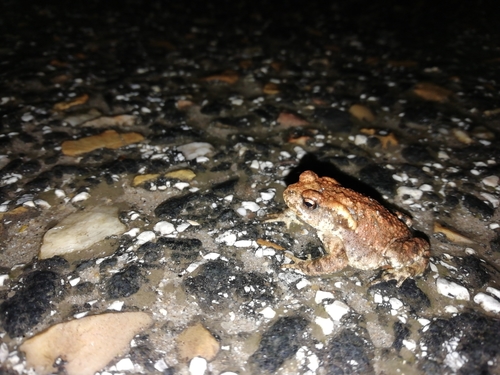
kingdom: Animalia
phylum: Chordata
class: Amphibia
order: Anura
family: Bufonidae
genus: Bufo
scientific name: Bufo spinosus
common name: Western common toad
